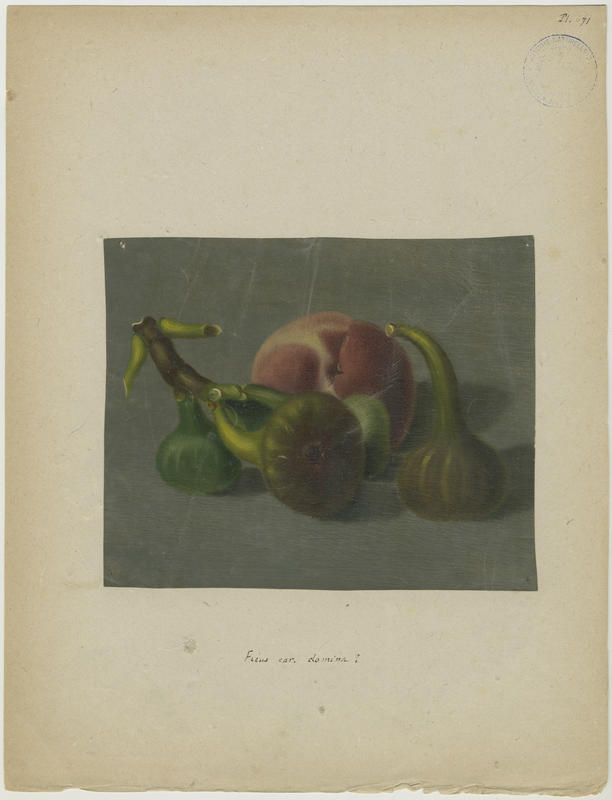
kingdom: Plantae
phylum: Tracheophyta
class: Magnoliopsida
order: Rosales
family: Moraceae
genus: Ficus
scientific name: Ficus carica
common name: Fig
